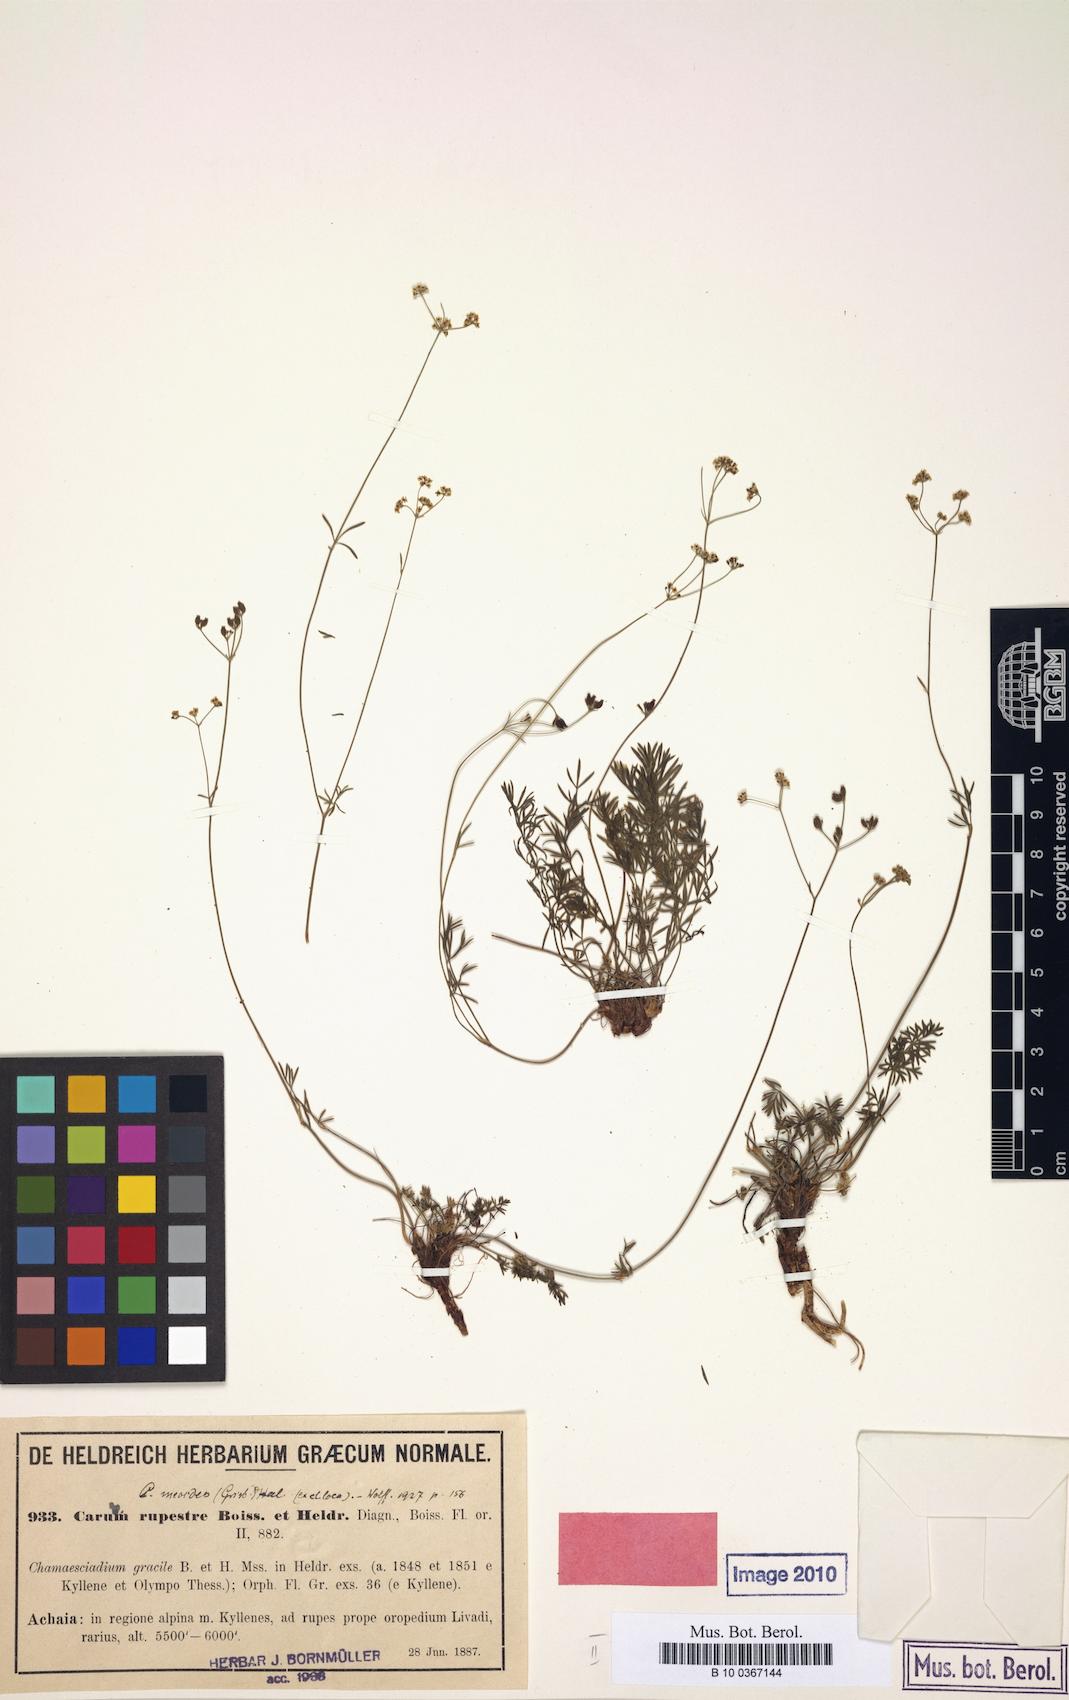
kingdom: Plantae
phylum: Tracheophyta
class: Magnoliopsida
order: Apiales
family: Apiaceae
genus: Carum
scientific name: Carum heldreichii
